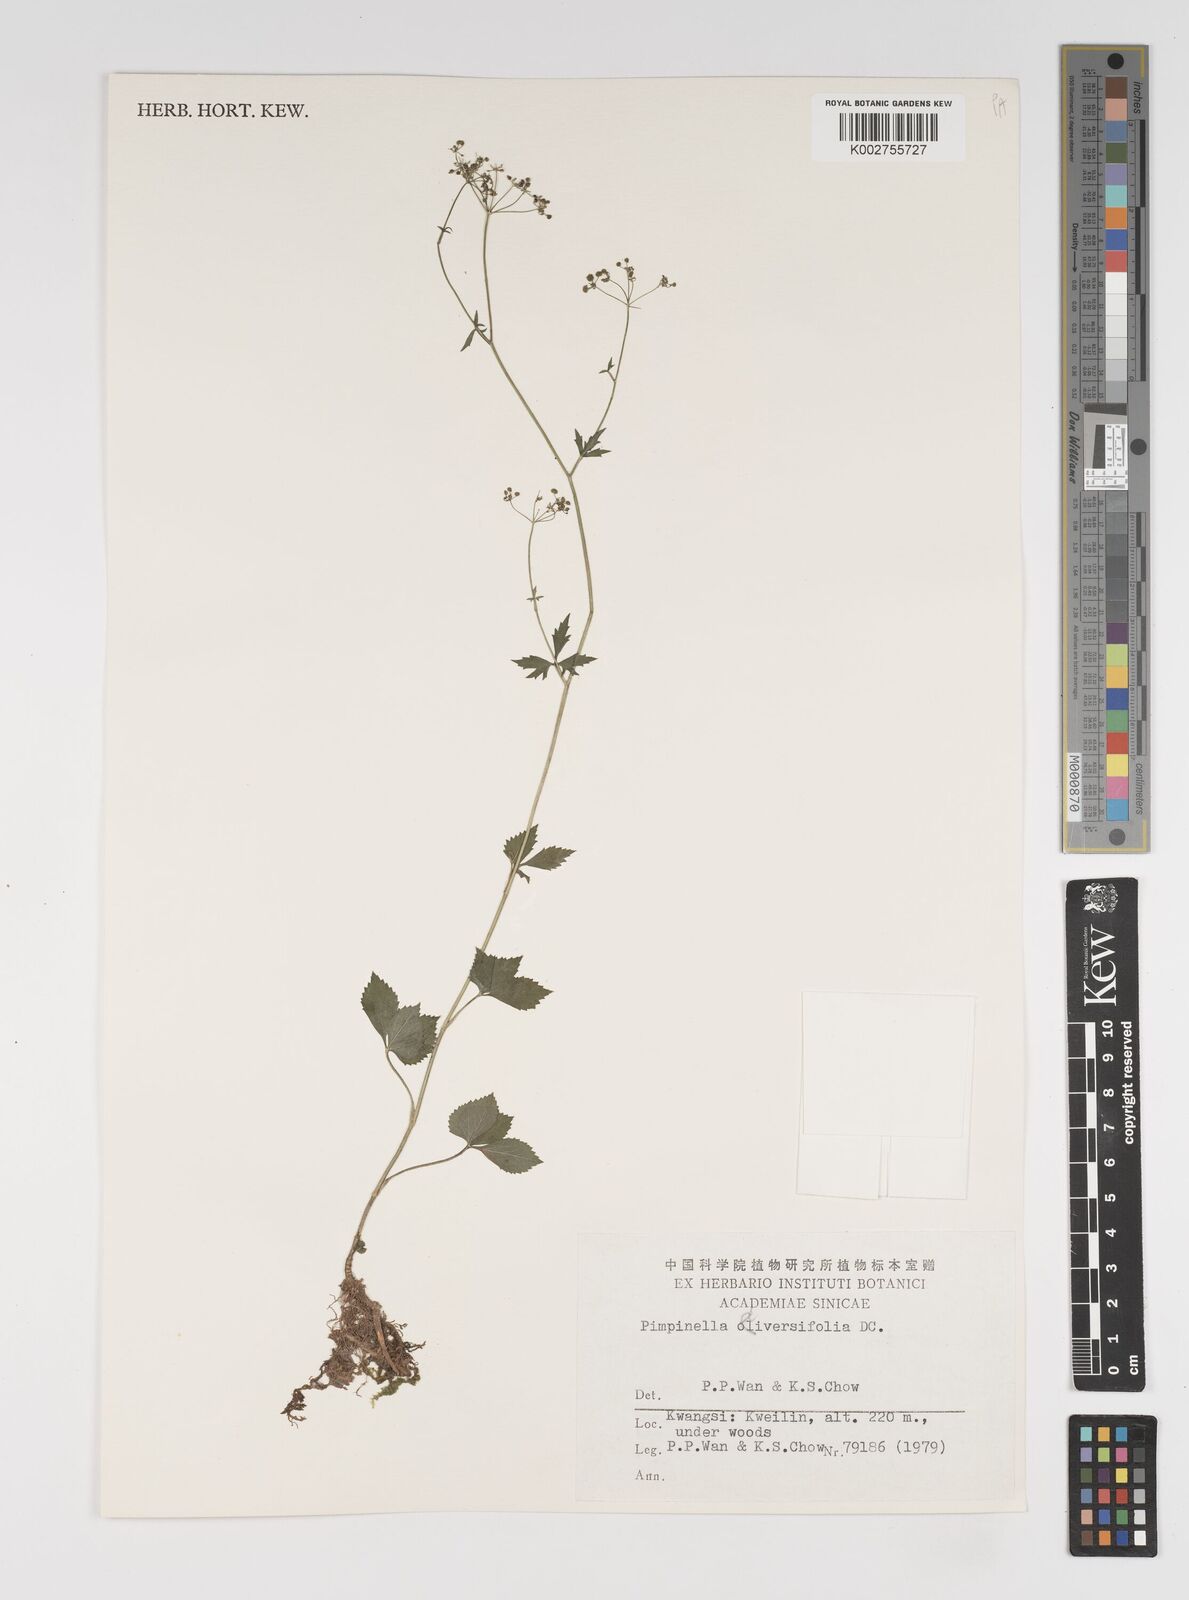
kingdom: Plantae
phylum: Tracheophyta
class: Magnoliopsida
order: Apiales
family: Apiaceae
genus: Pimpinella
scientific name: Pimpinella diversifolia
